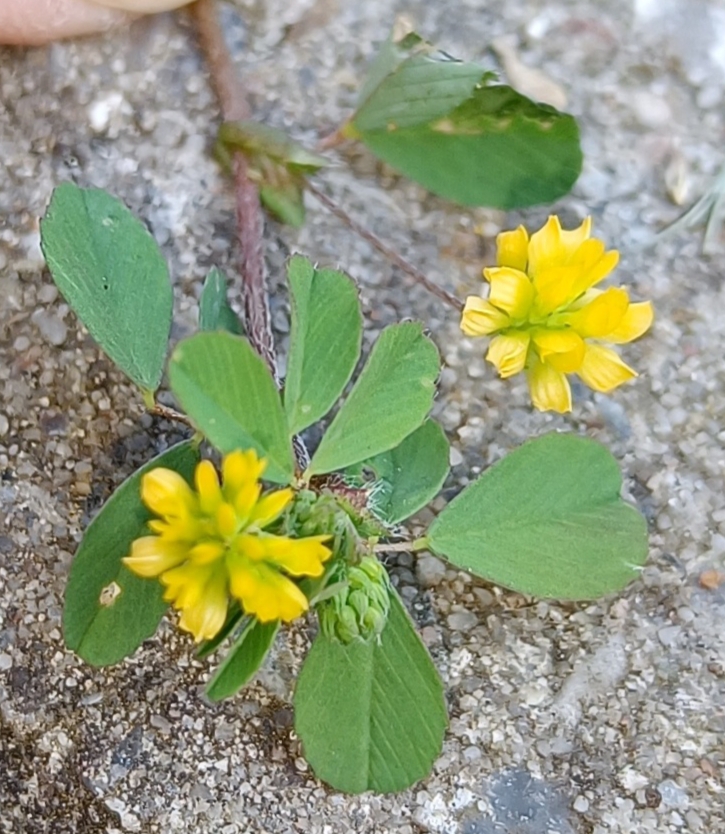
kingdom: Plantae
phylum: Tracheophyta
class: Magnoliopsida
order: Fabales
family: Fabaceae
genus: Trifolium
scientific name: Trifolium dubium
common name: Fin kløver
